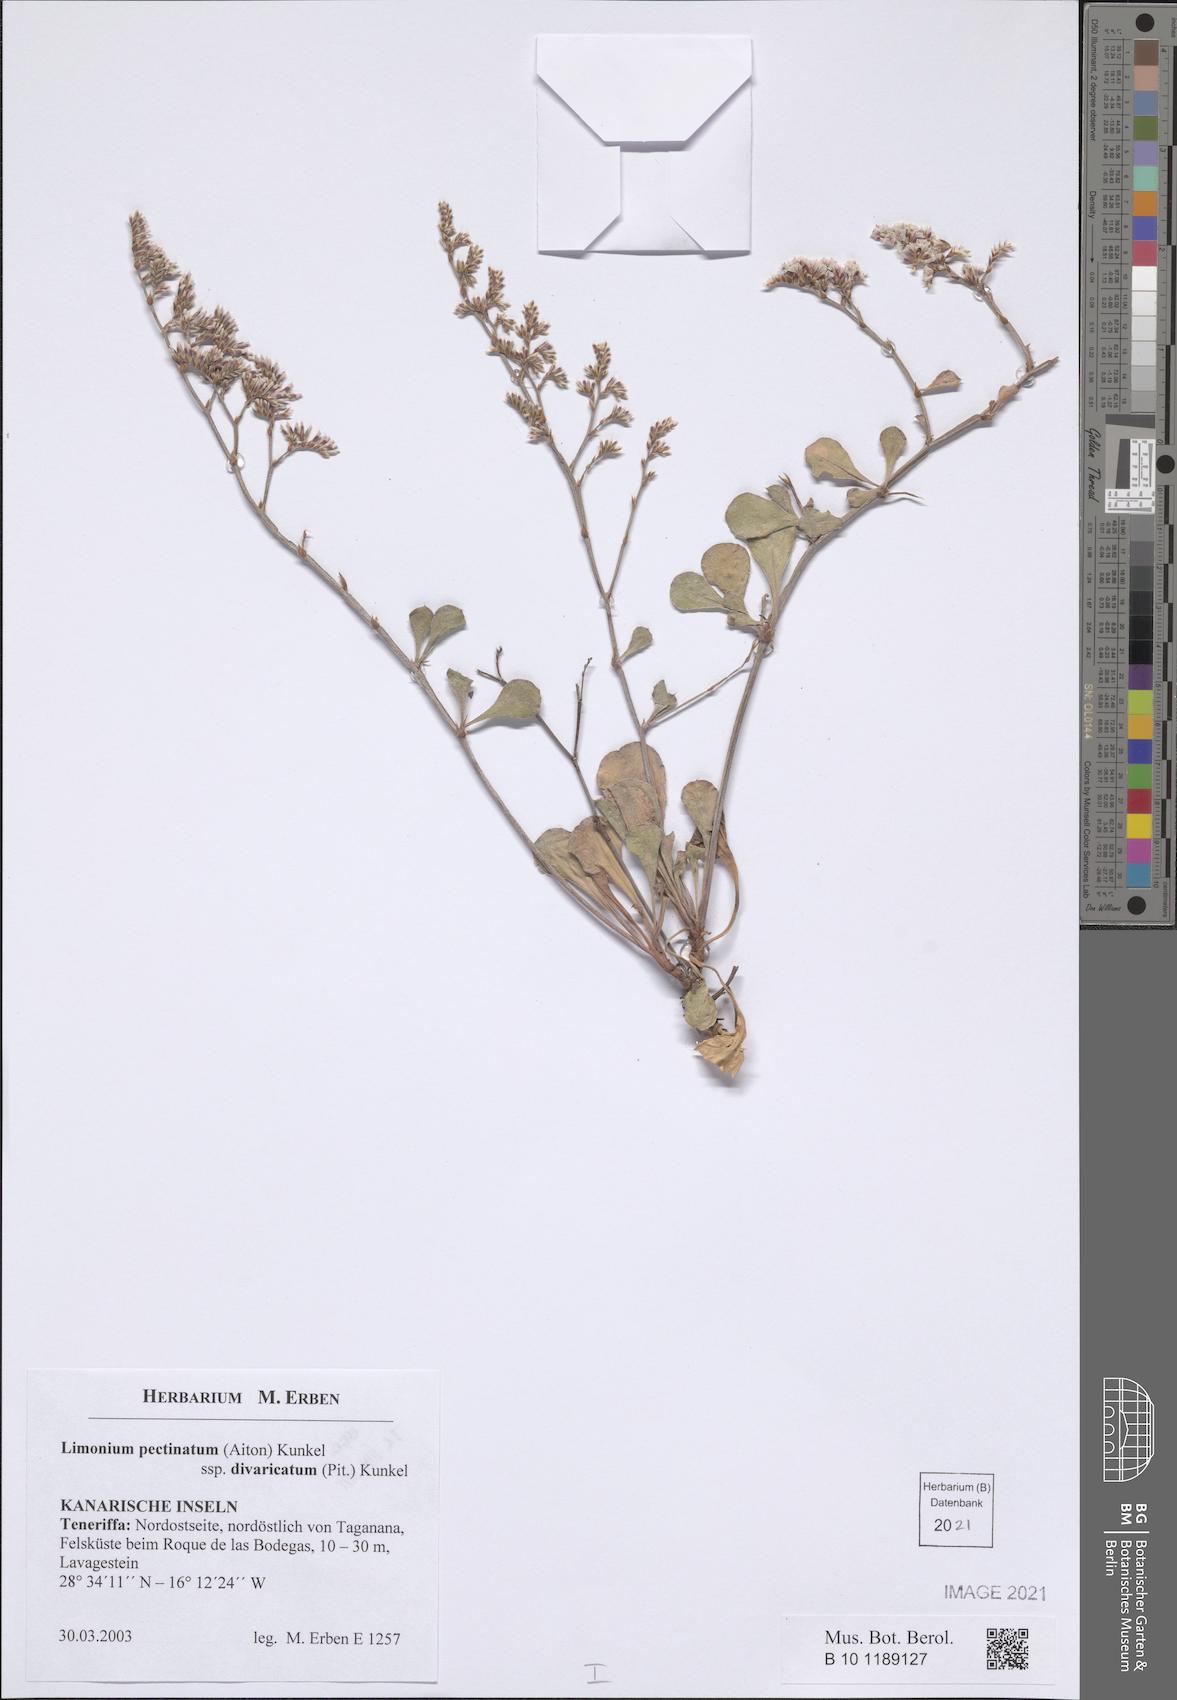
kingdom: Plantae
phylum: Tracheophyta
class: Magnoliopsida
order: Caryophyllales
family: Plumbaginaceae
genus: Limonium
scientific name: Limonium pectinatum
